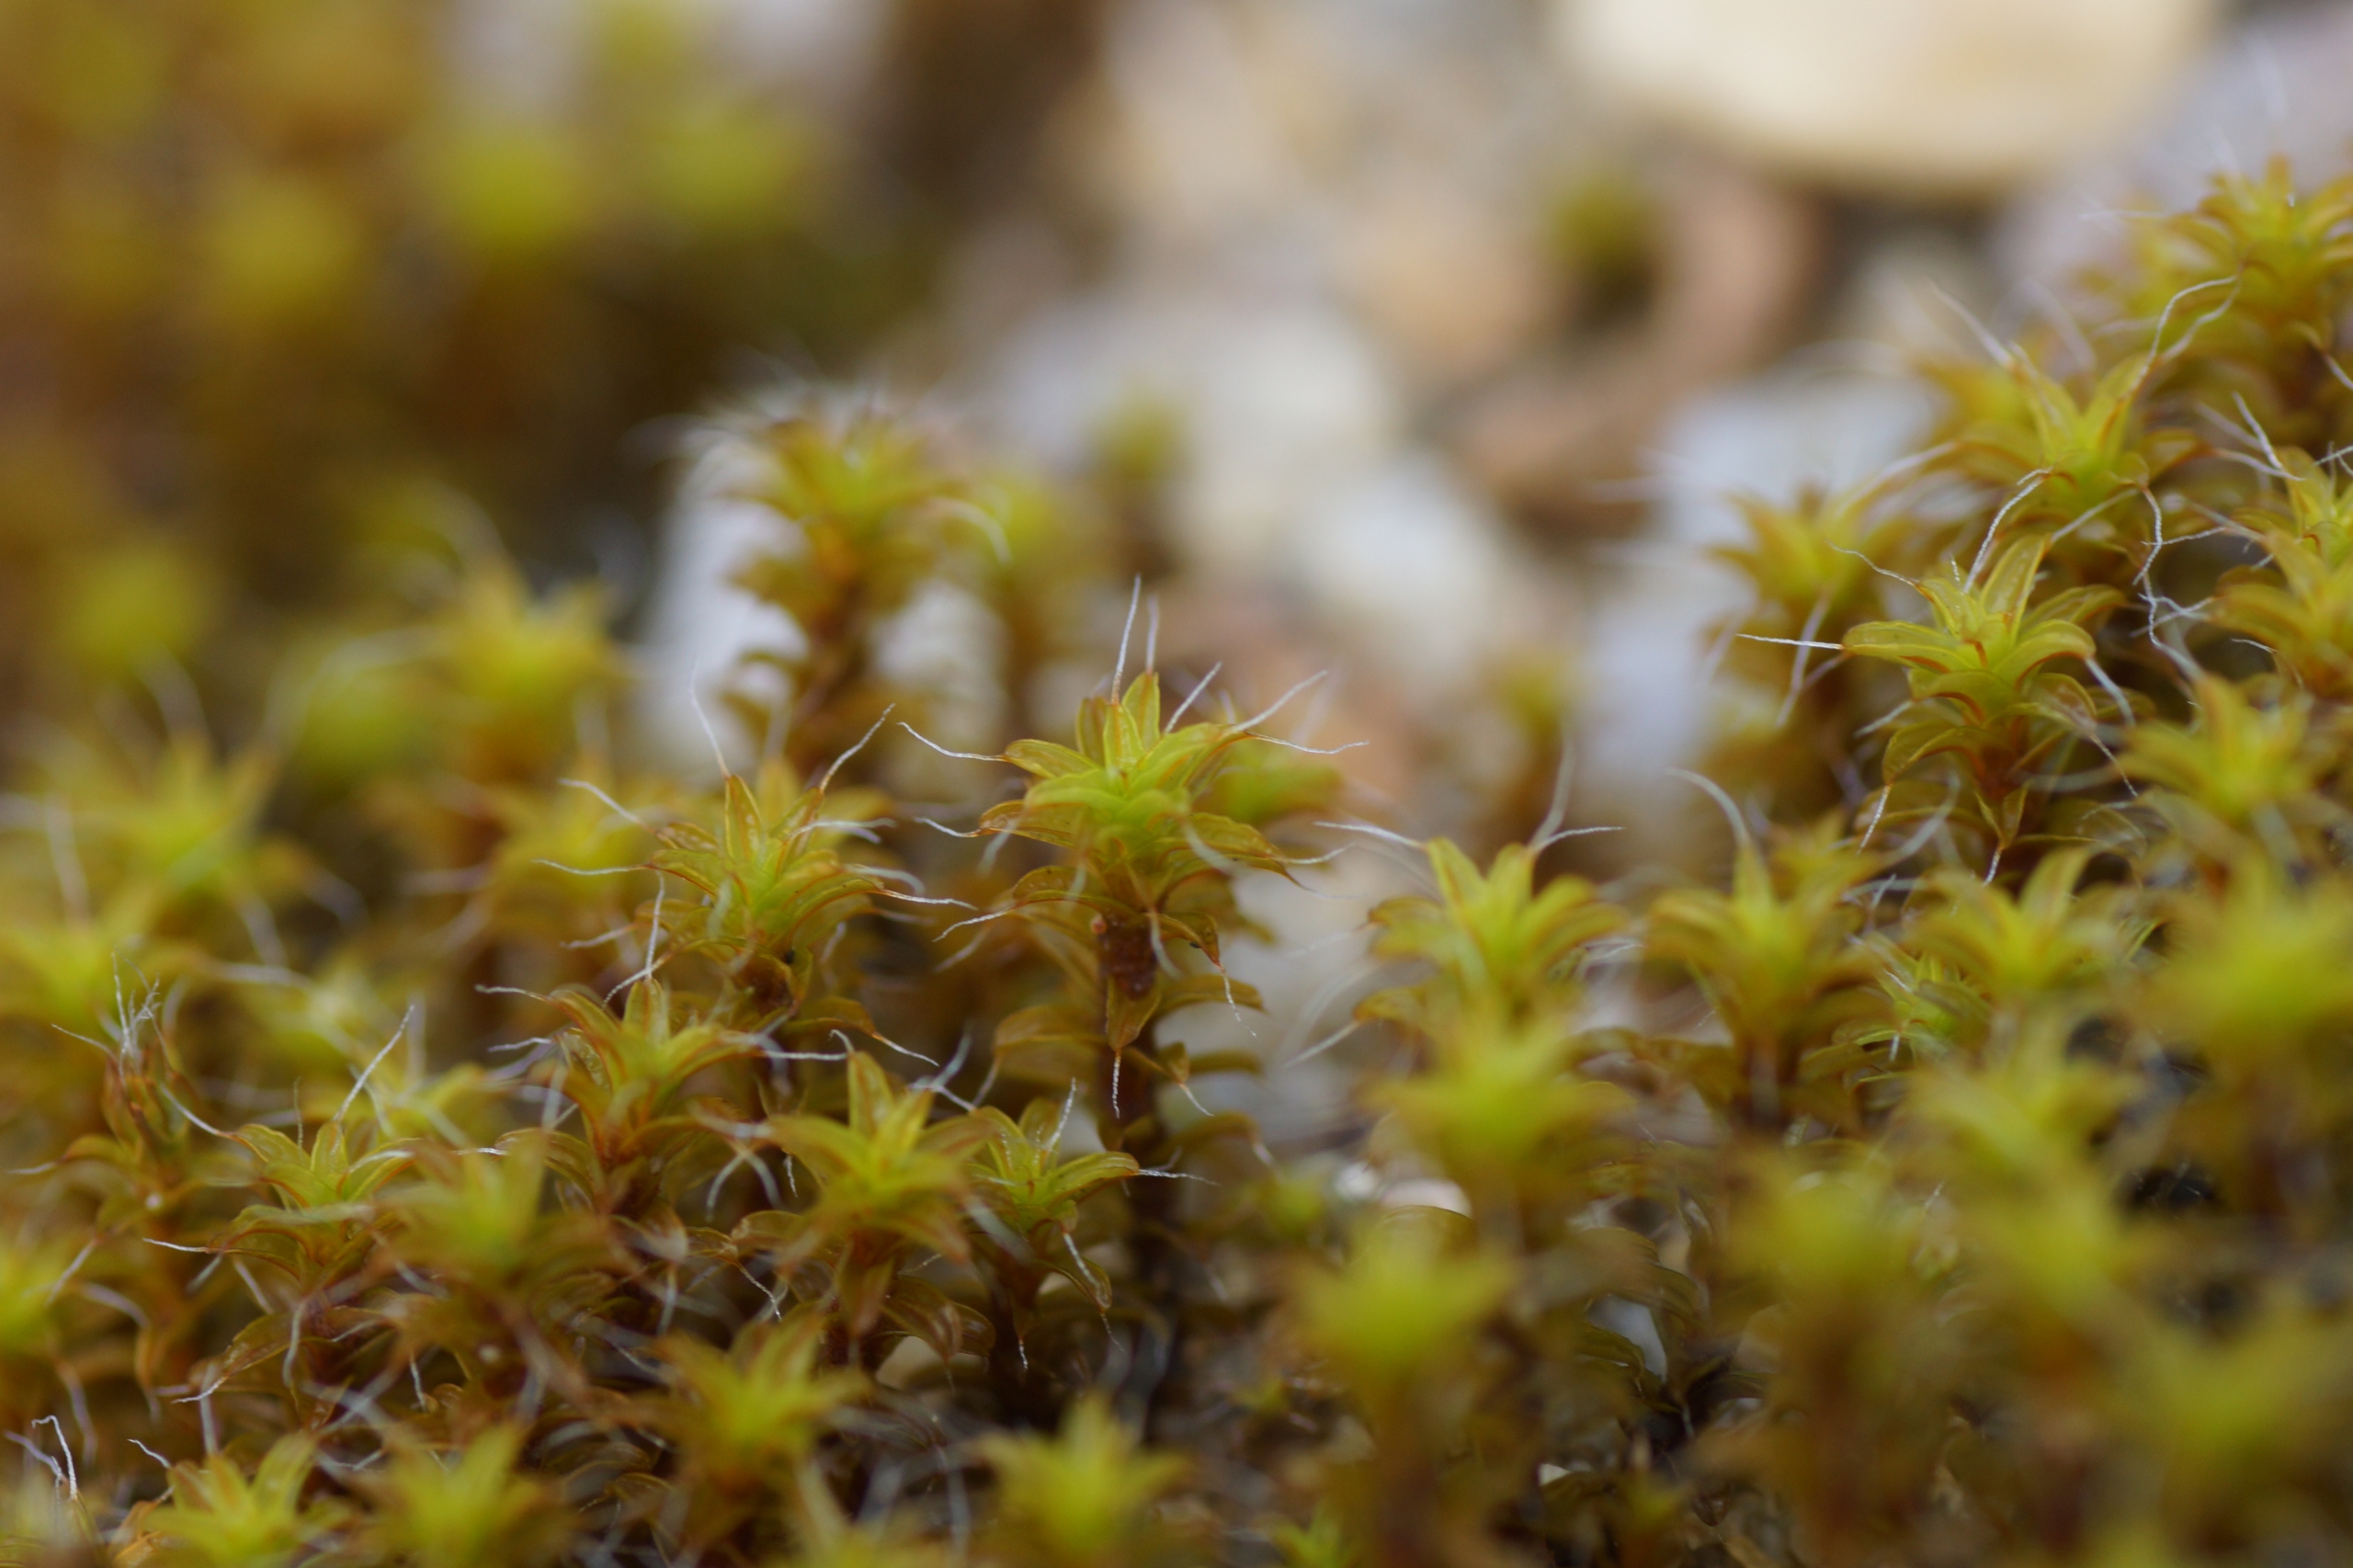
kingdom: Plantae
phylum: Bryophyta
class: Bryopsida
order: Pottiales
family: Pottiaceae
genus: Syntrichia
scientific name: Syntrichia ruralis
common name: Tag-hårstjerne
